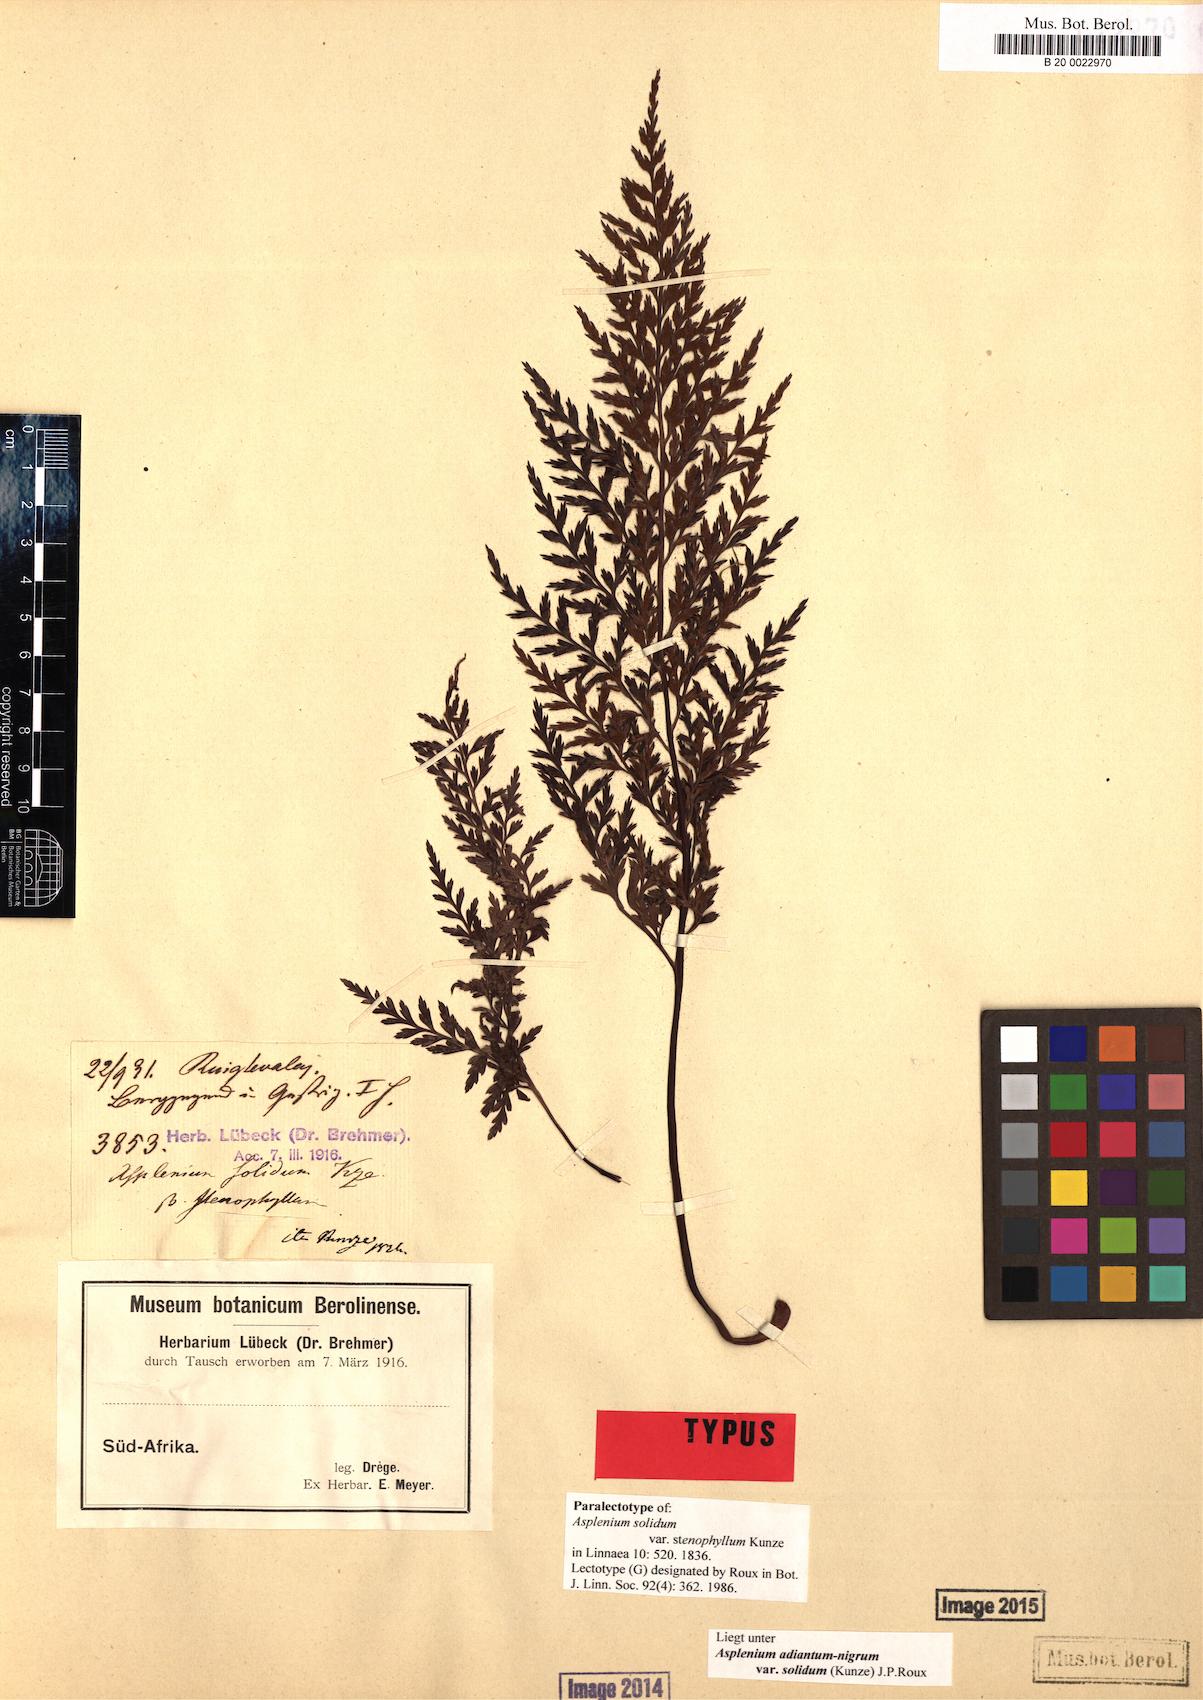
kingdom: Plantae
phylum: Tracheophyta
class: Polypodiopsida
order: Polypodiales
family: Aspleniaceae
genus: Asplenium
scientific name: Asplenium adiantum-nigrum
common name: Black spleenwort
